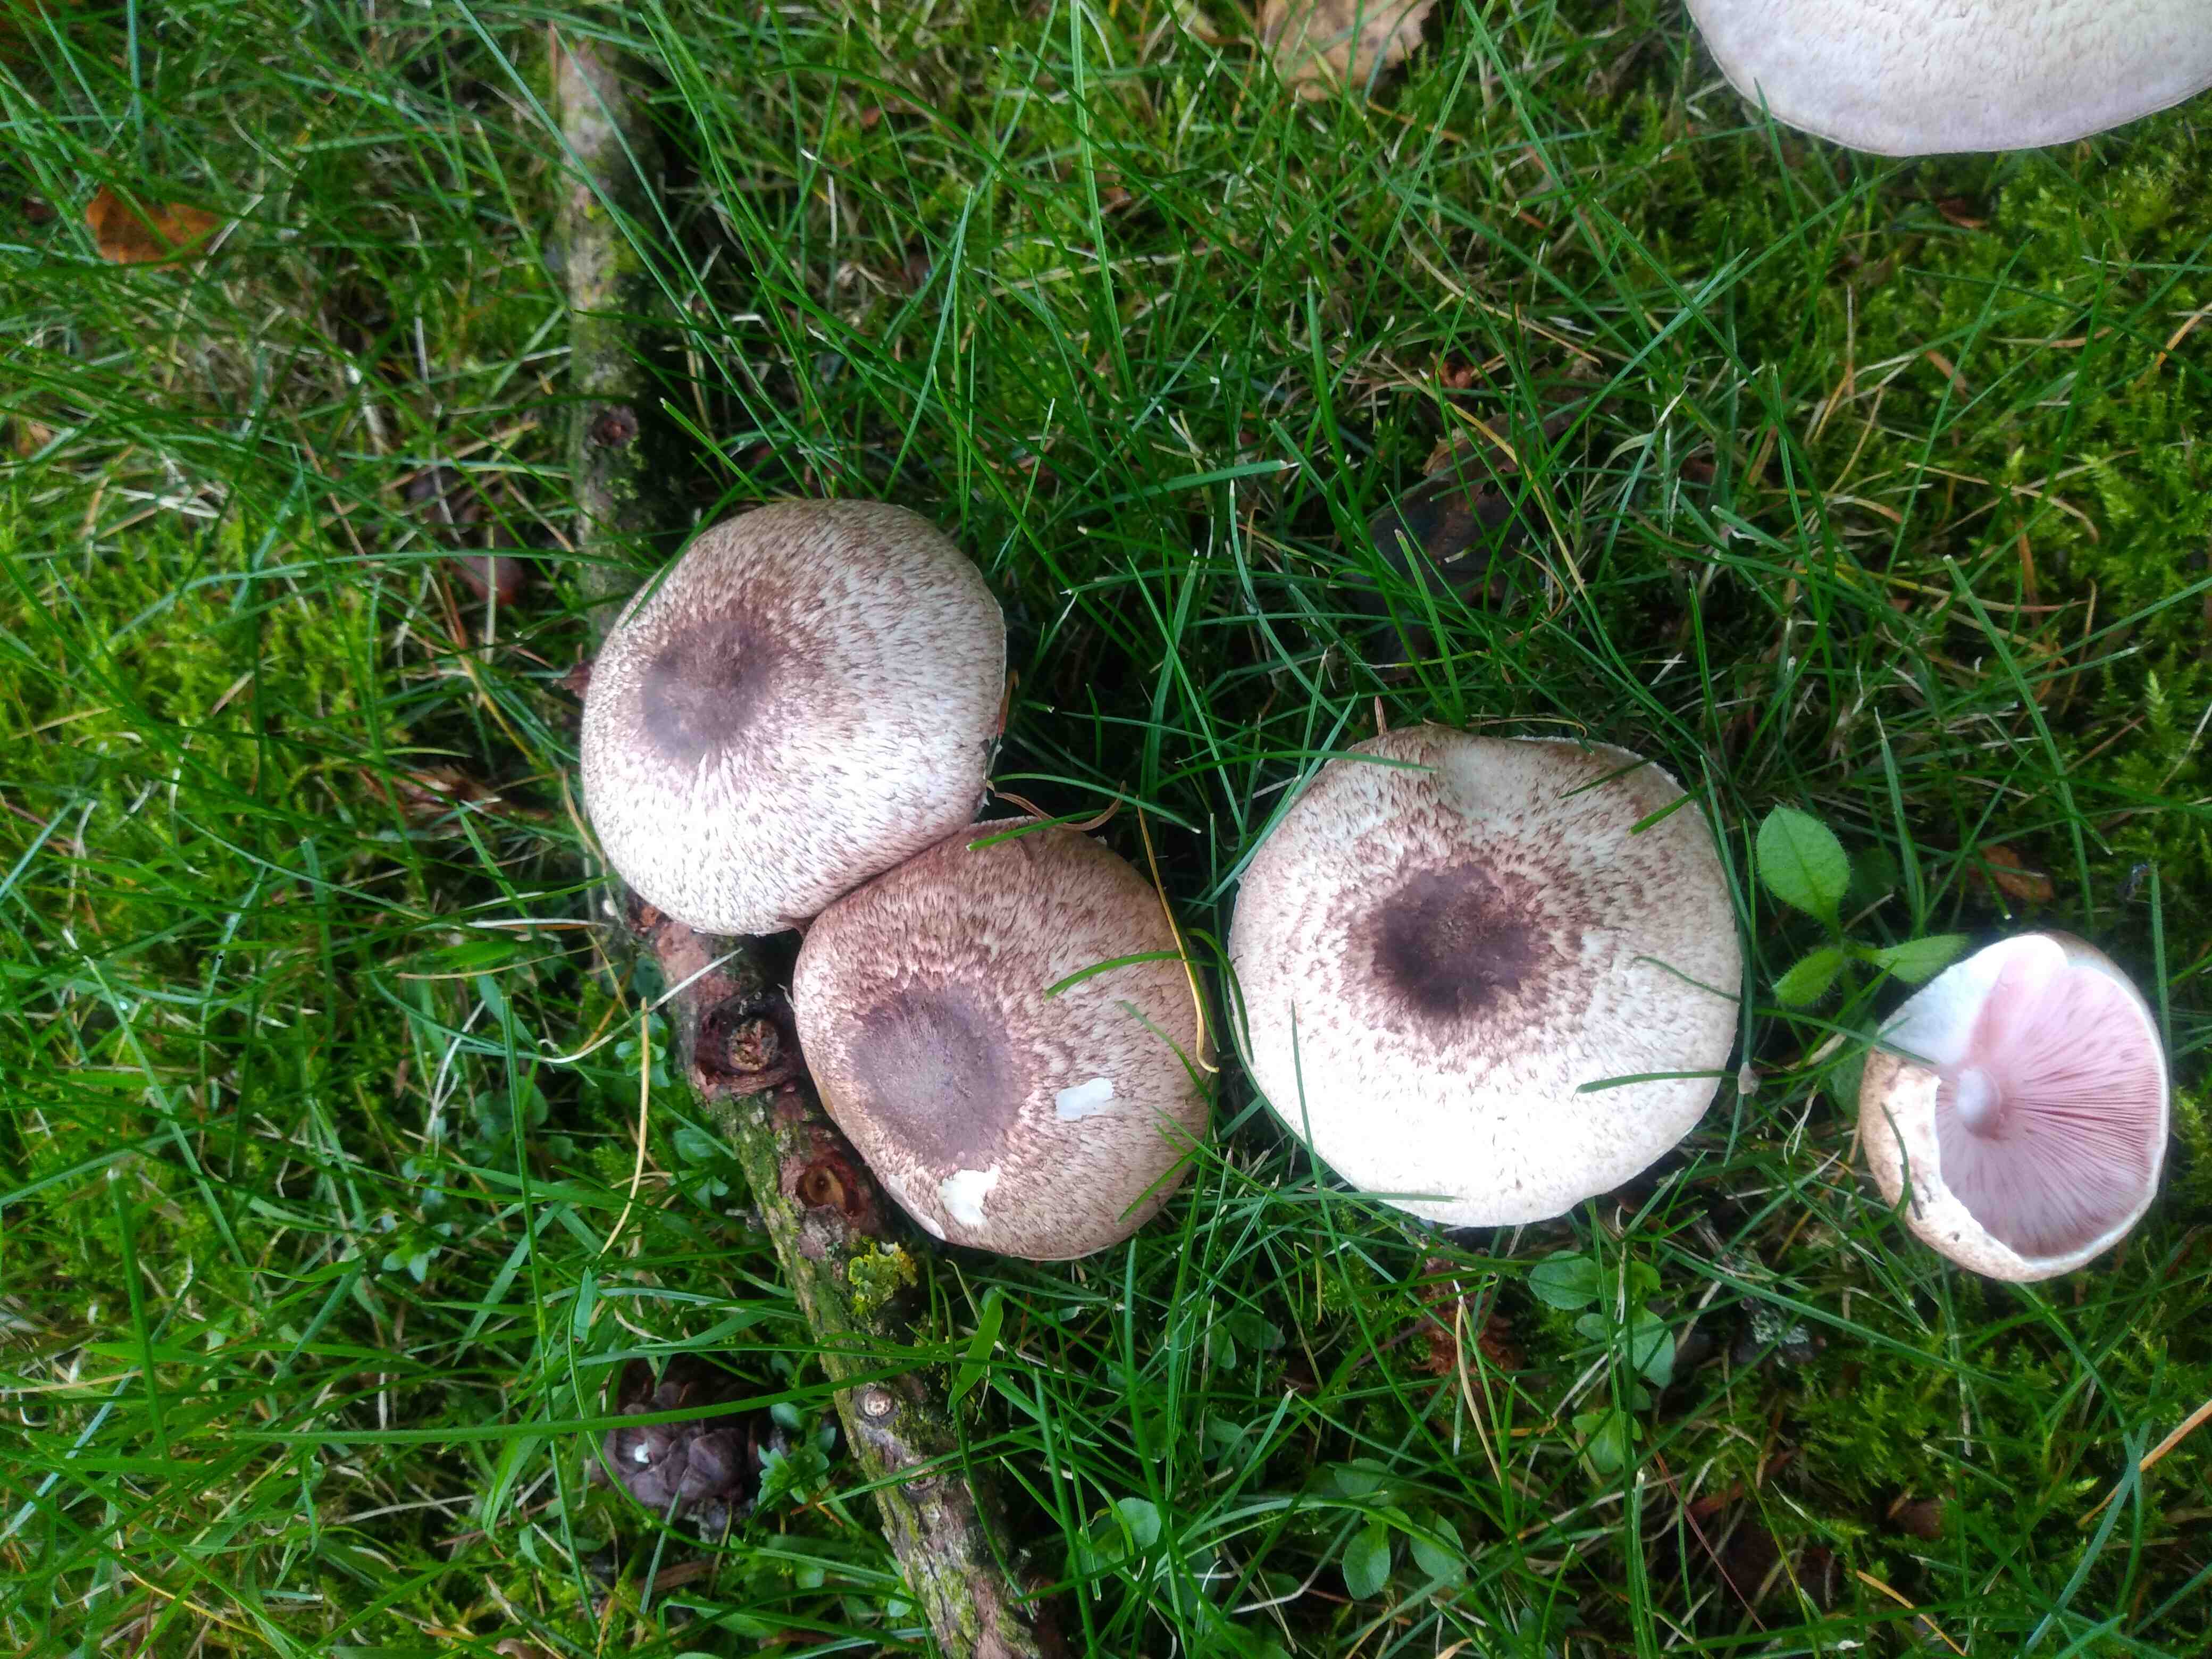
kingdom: Fungi
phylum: Basidiomycota
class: Agaricomycetes
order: Agaricales
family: Agaricaceae
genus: Agaricus
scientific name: Agaricus
